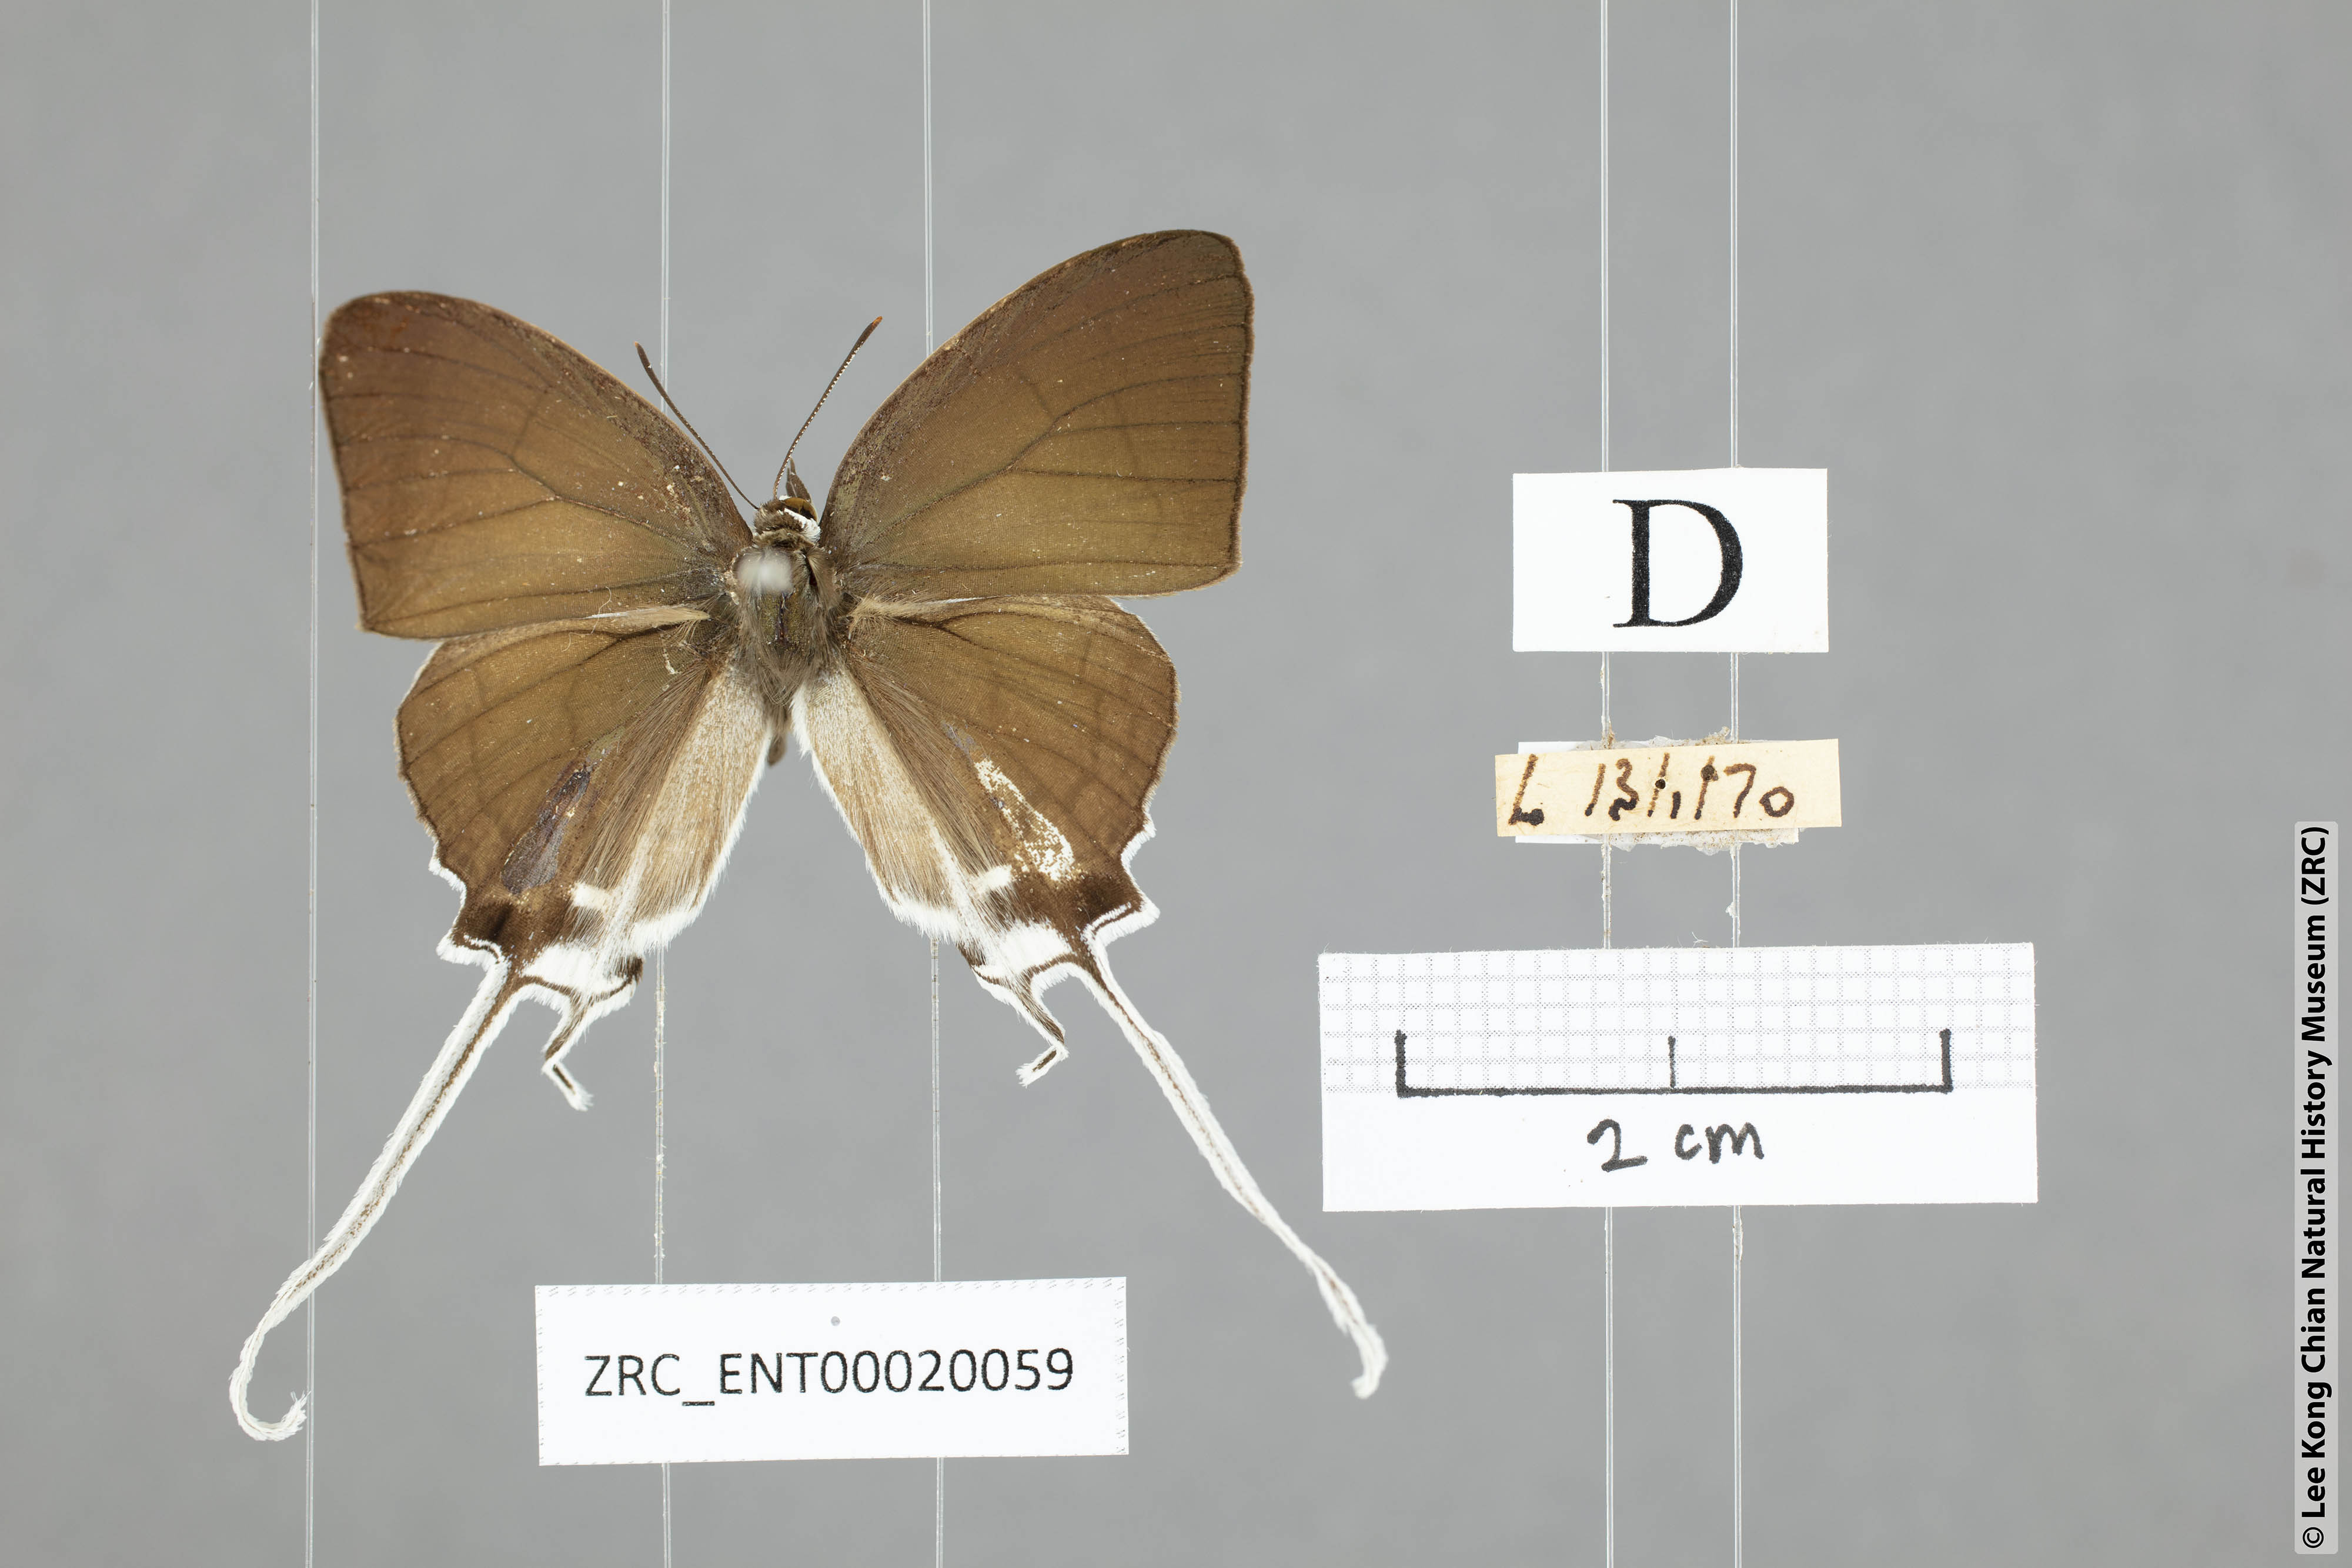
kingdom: Animalia
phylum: Arthropoda
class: Insecta
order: Lepidoptera
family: Lycaenidae
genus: Cheritra
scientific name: Cheritra freja
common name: Common imperial
